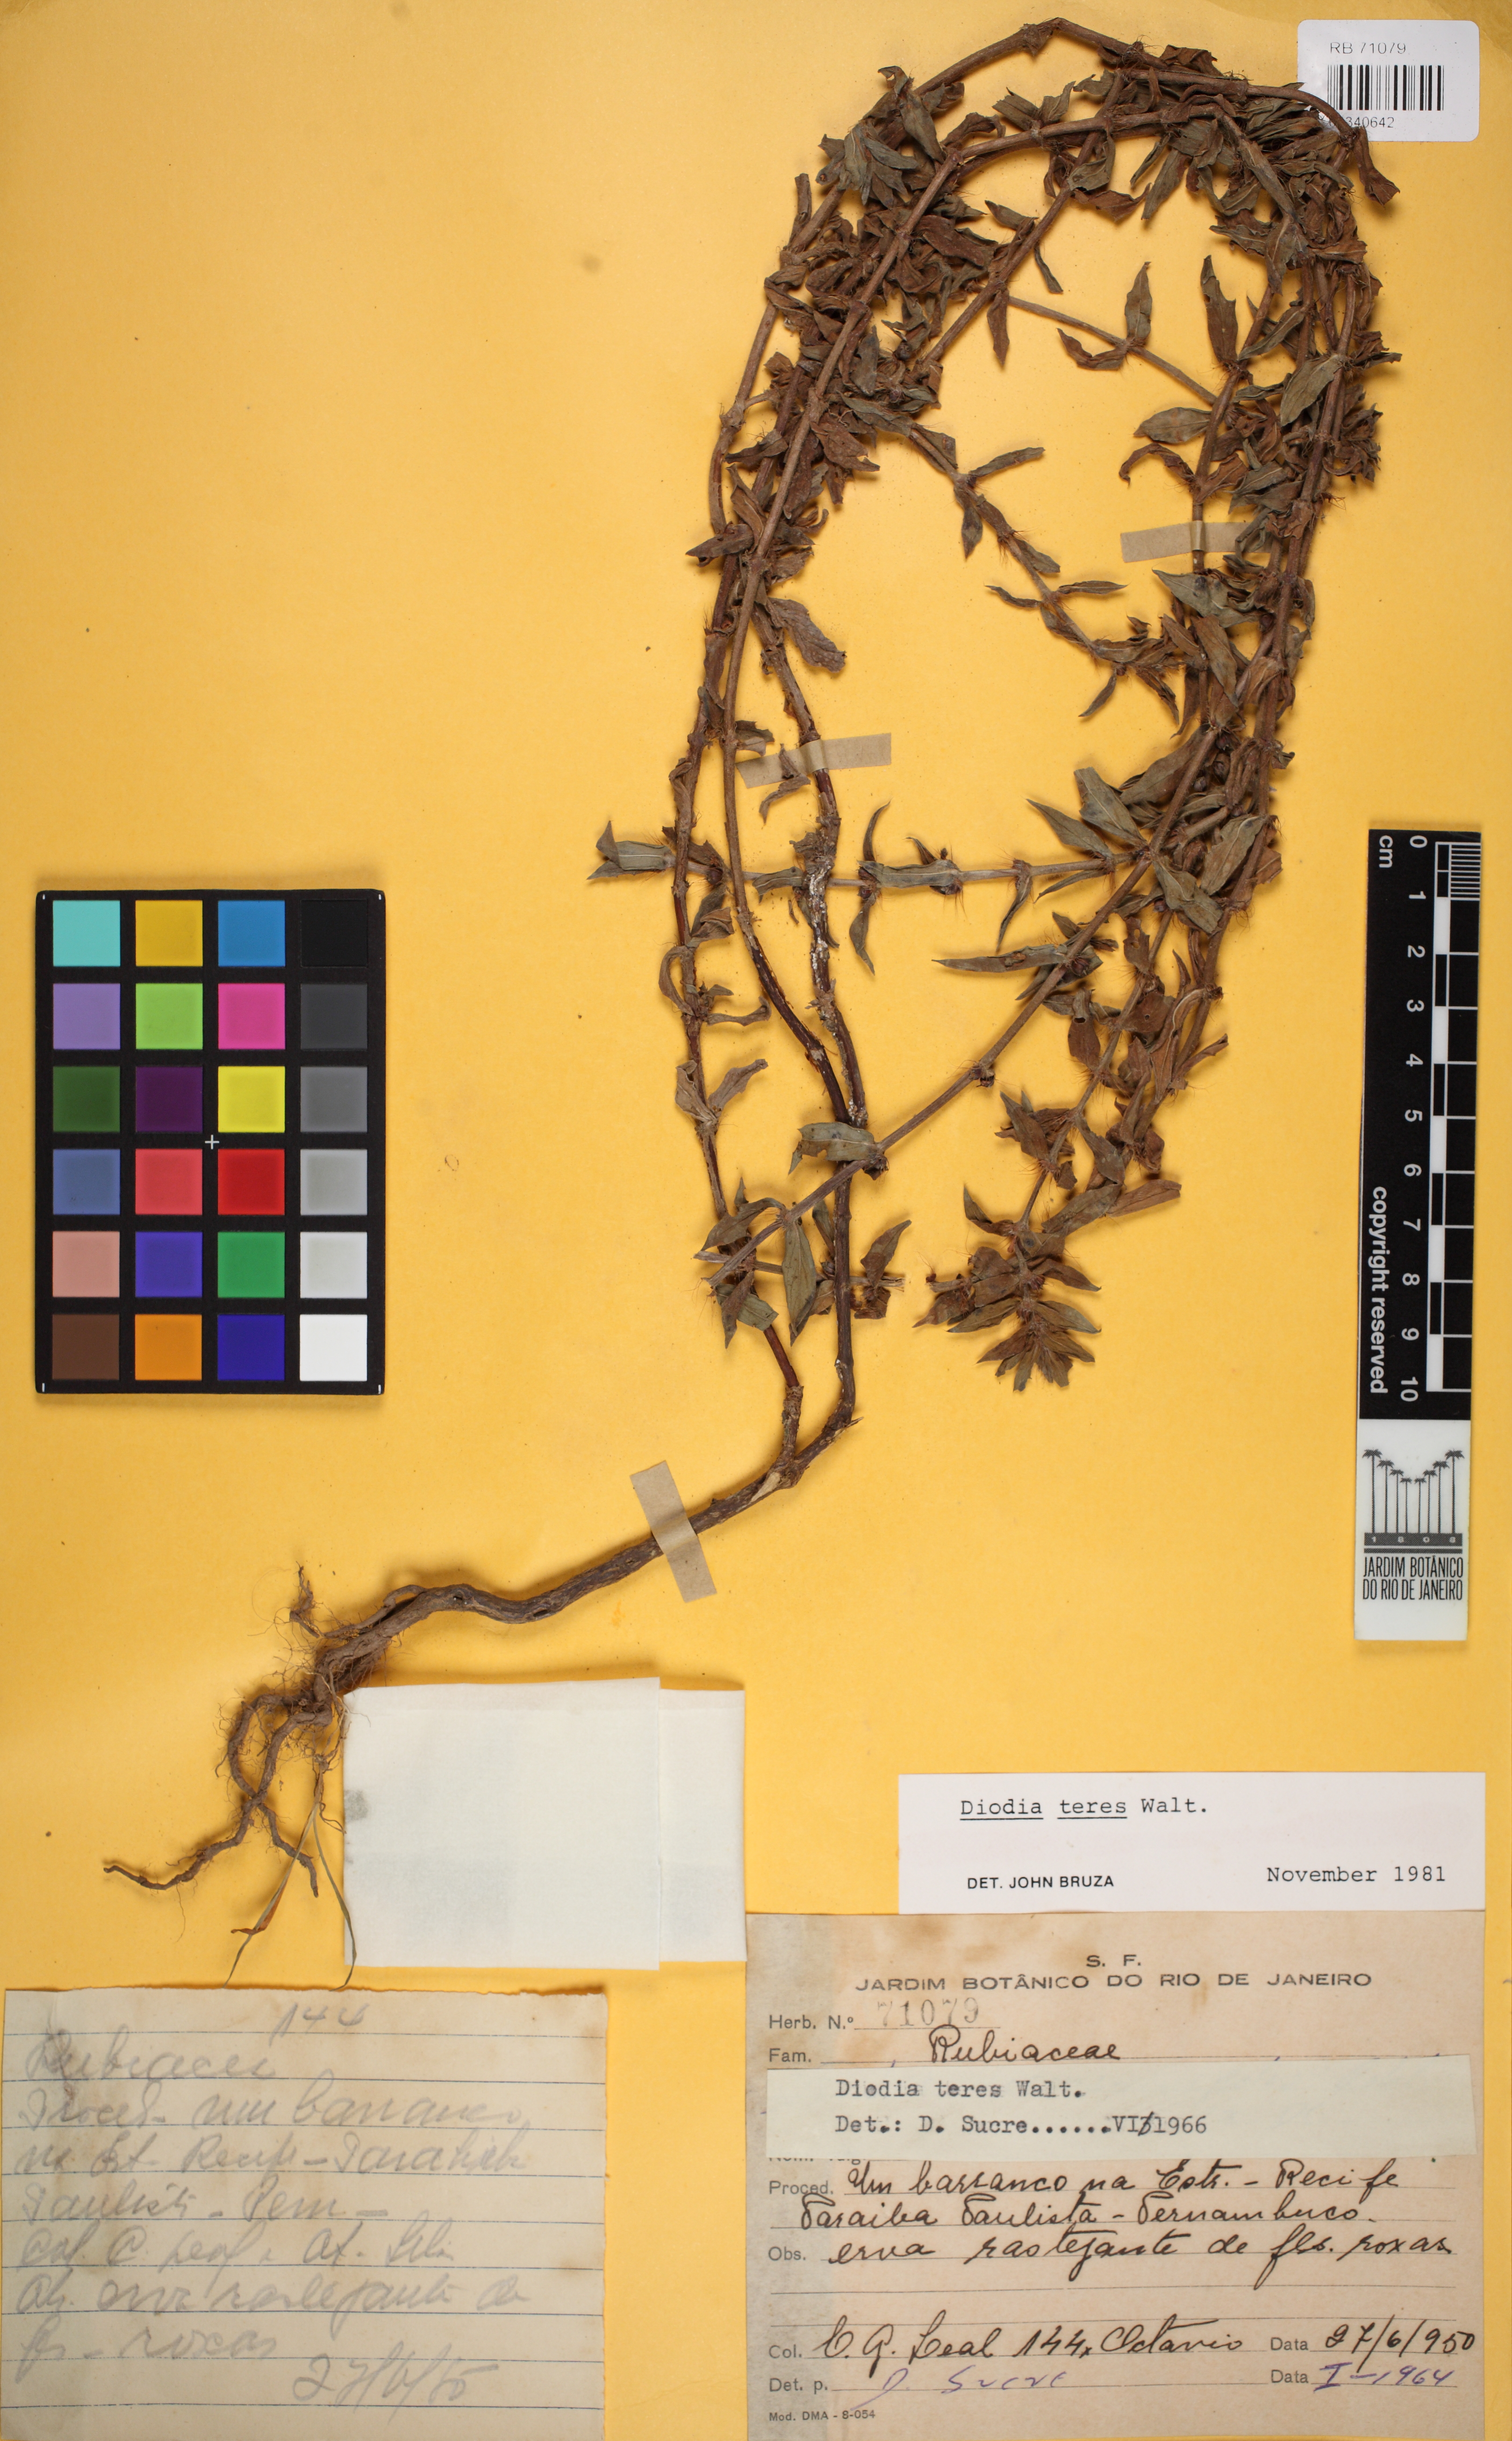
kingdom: Plantae
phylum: Tracheophyta
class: Magnoliopsida
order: Gentianales
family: Rubiaceae
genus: Hexasepalum
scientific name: Hexasepalum teres
